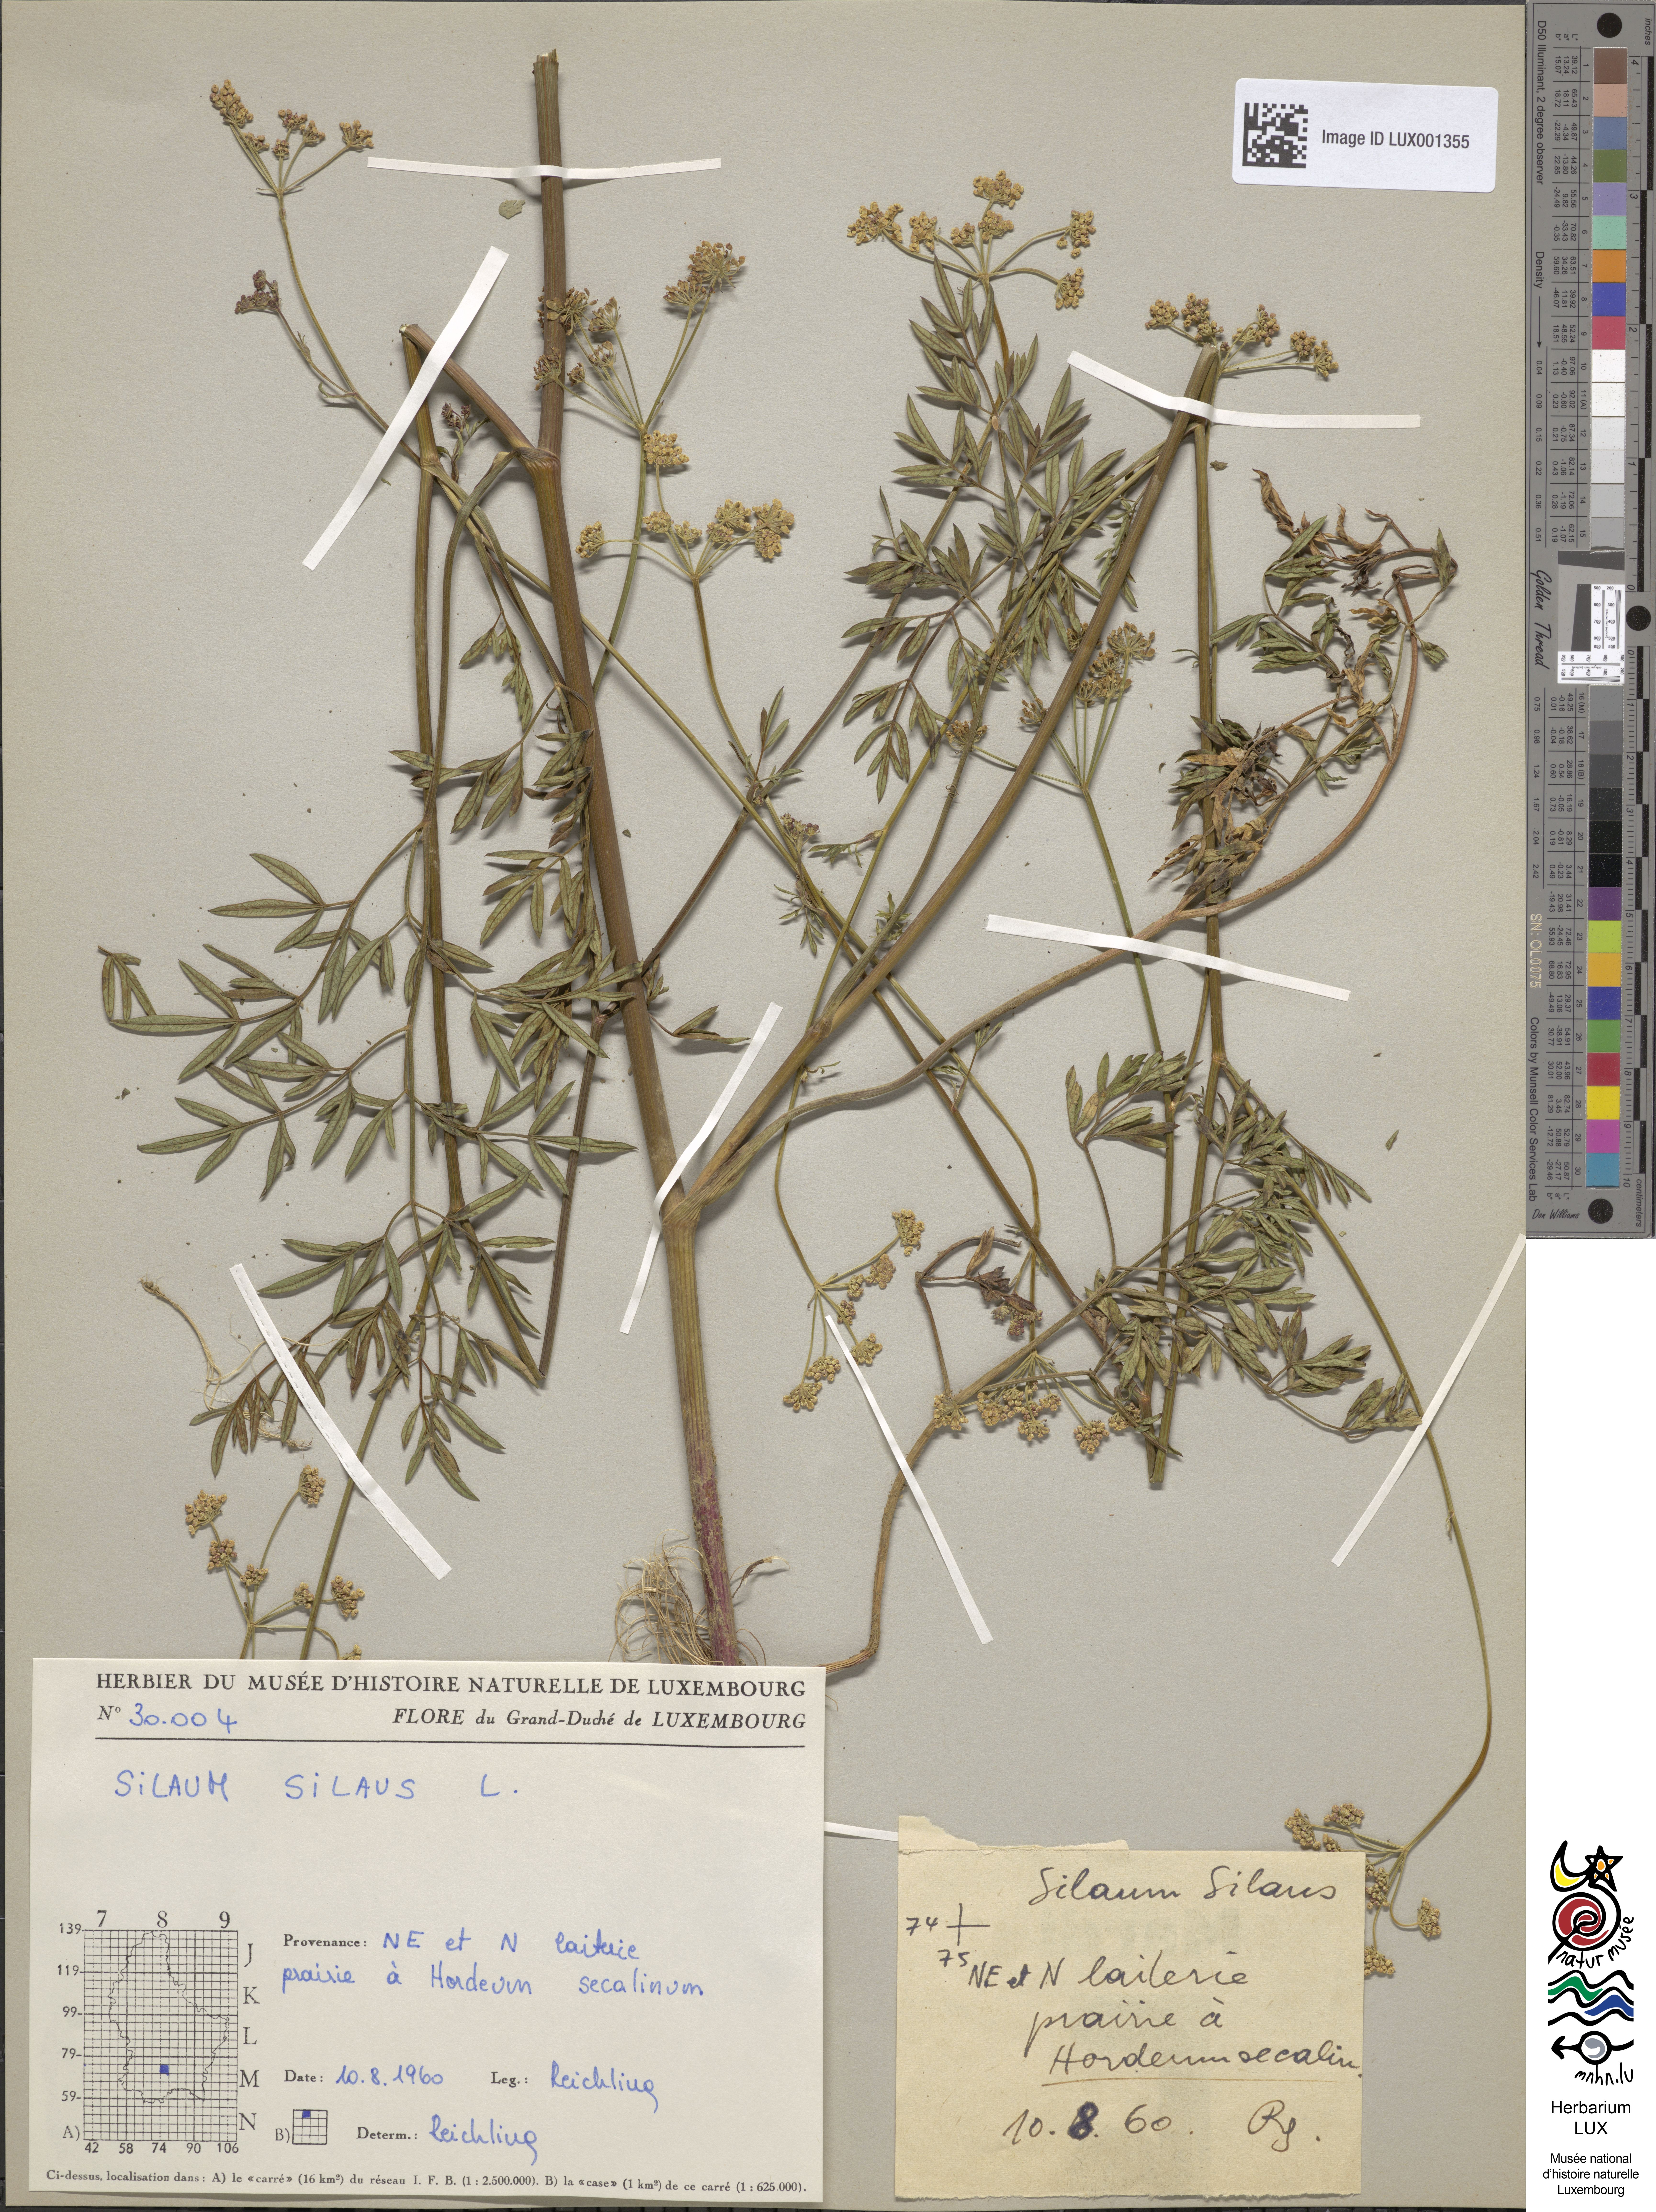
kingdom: Plantae
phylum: Tracheophyta
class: Magnoliopsida
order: Apiales
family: Apiaceae
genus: Silaum
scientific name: Silaum silaus
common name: Pepper-saxifrage
